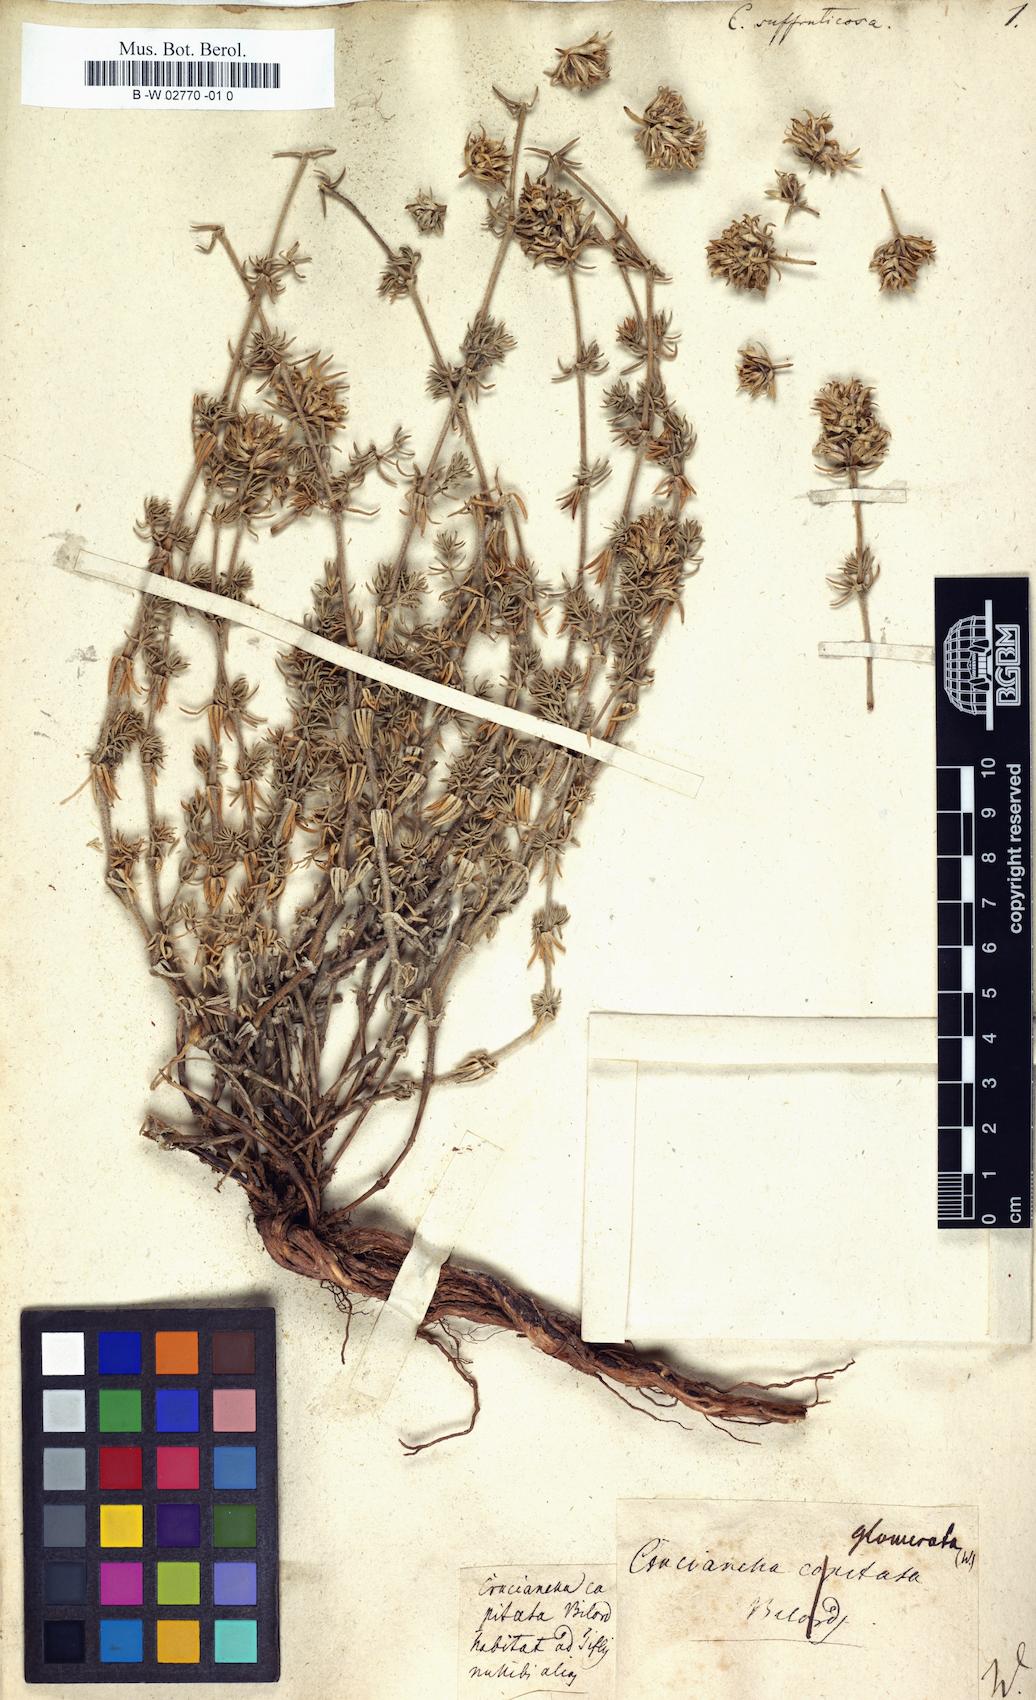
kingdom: Plantae
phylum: Tracheophyta
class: Magnoliopsida
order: Gentianales
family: Rubiaceae
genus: Asperula
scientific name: Asperula glomerata
